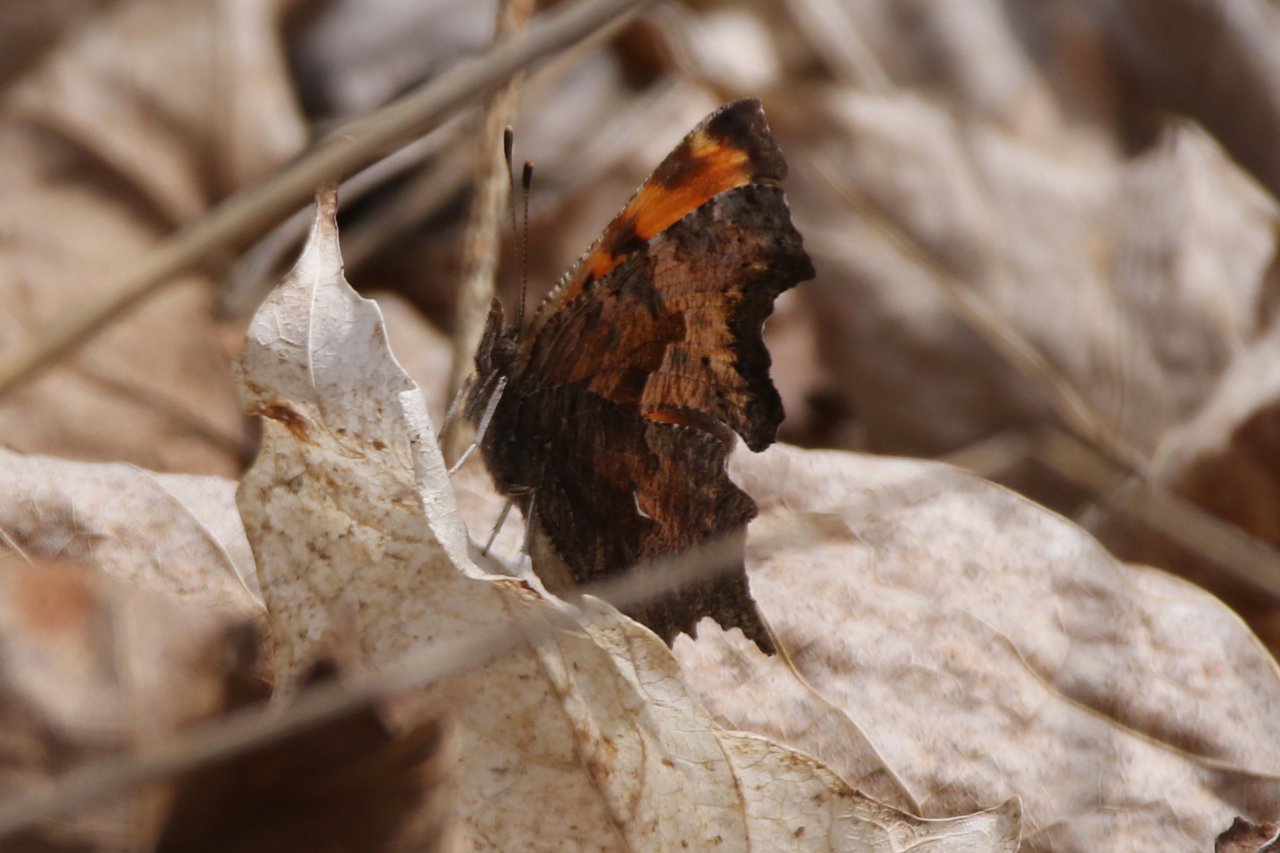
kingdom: Animalia
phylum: Arthropoda
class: Insecta
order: Lepidoptera
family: Nymphalidae
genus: Polygonia
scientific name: Polygonia progne
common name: Gray Comma
